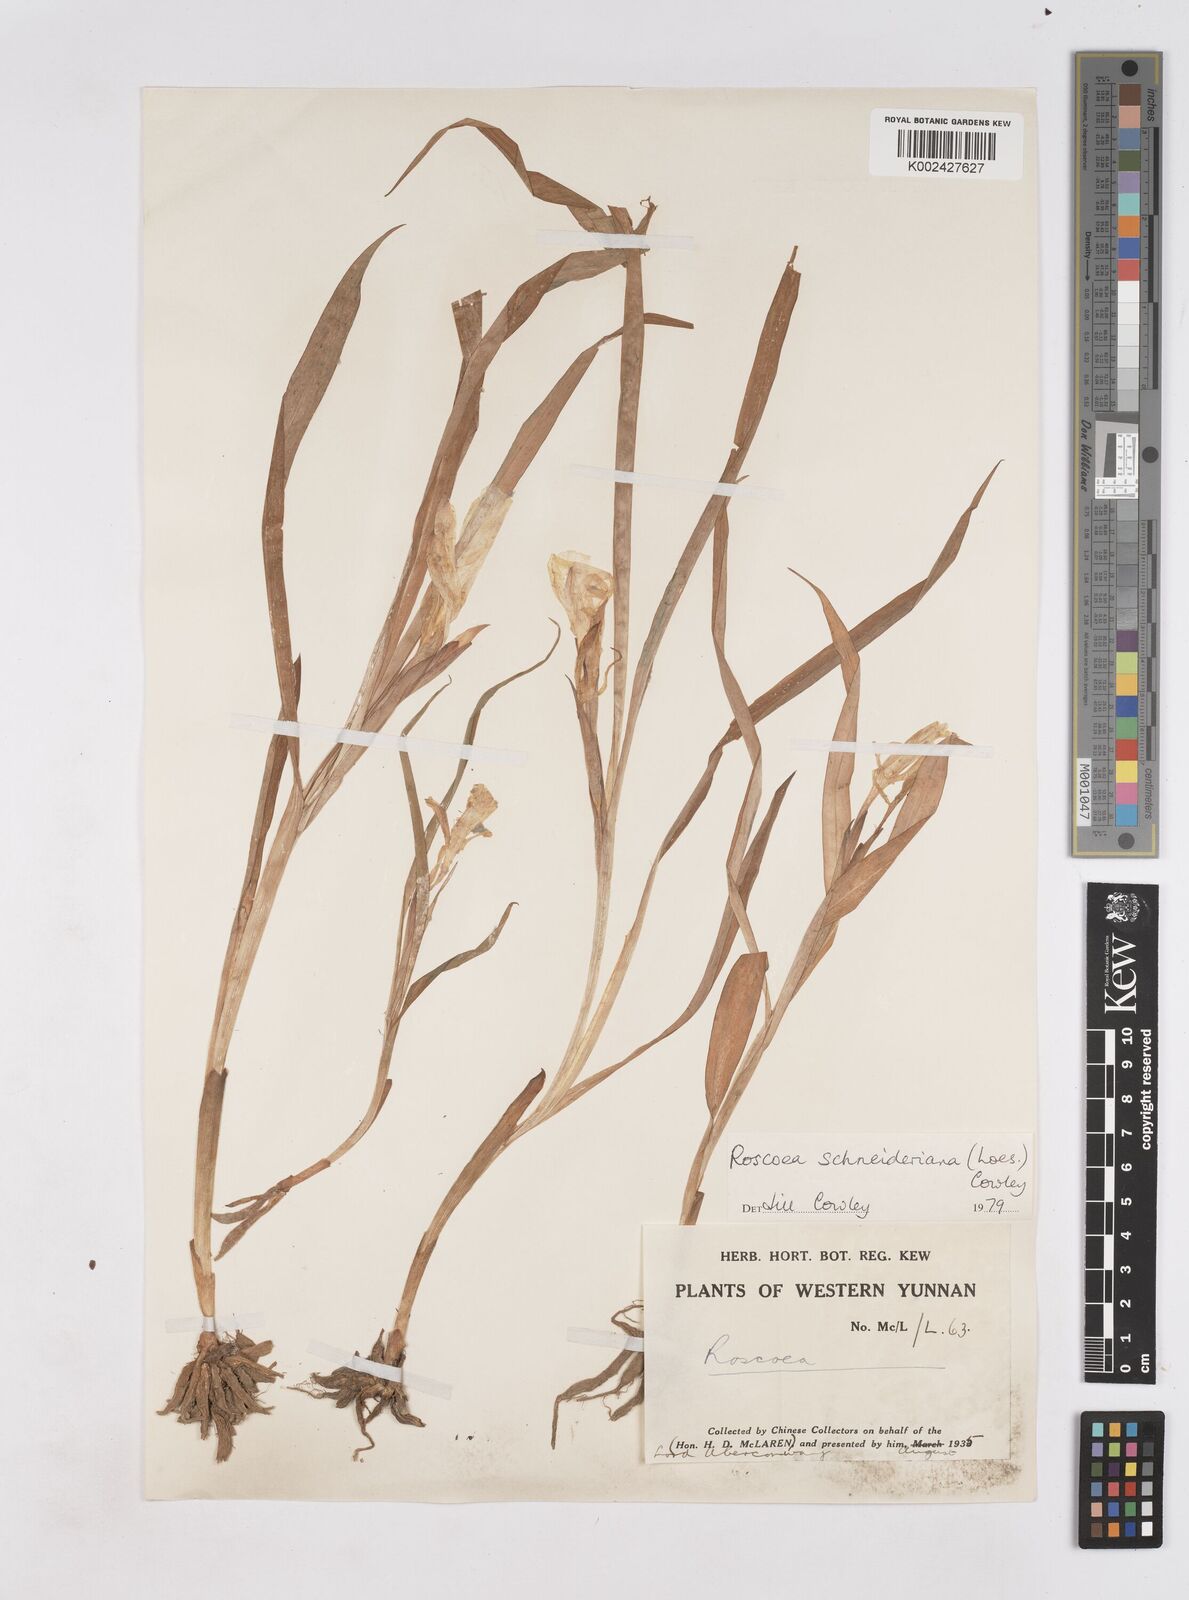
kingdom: Plantae
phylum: Tracheophyta
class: Liliopsida
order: Zingiberales
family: Zingiberaceae
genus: Roscoea
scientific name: Roscoea schneideriana
